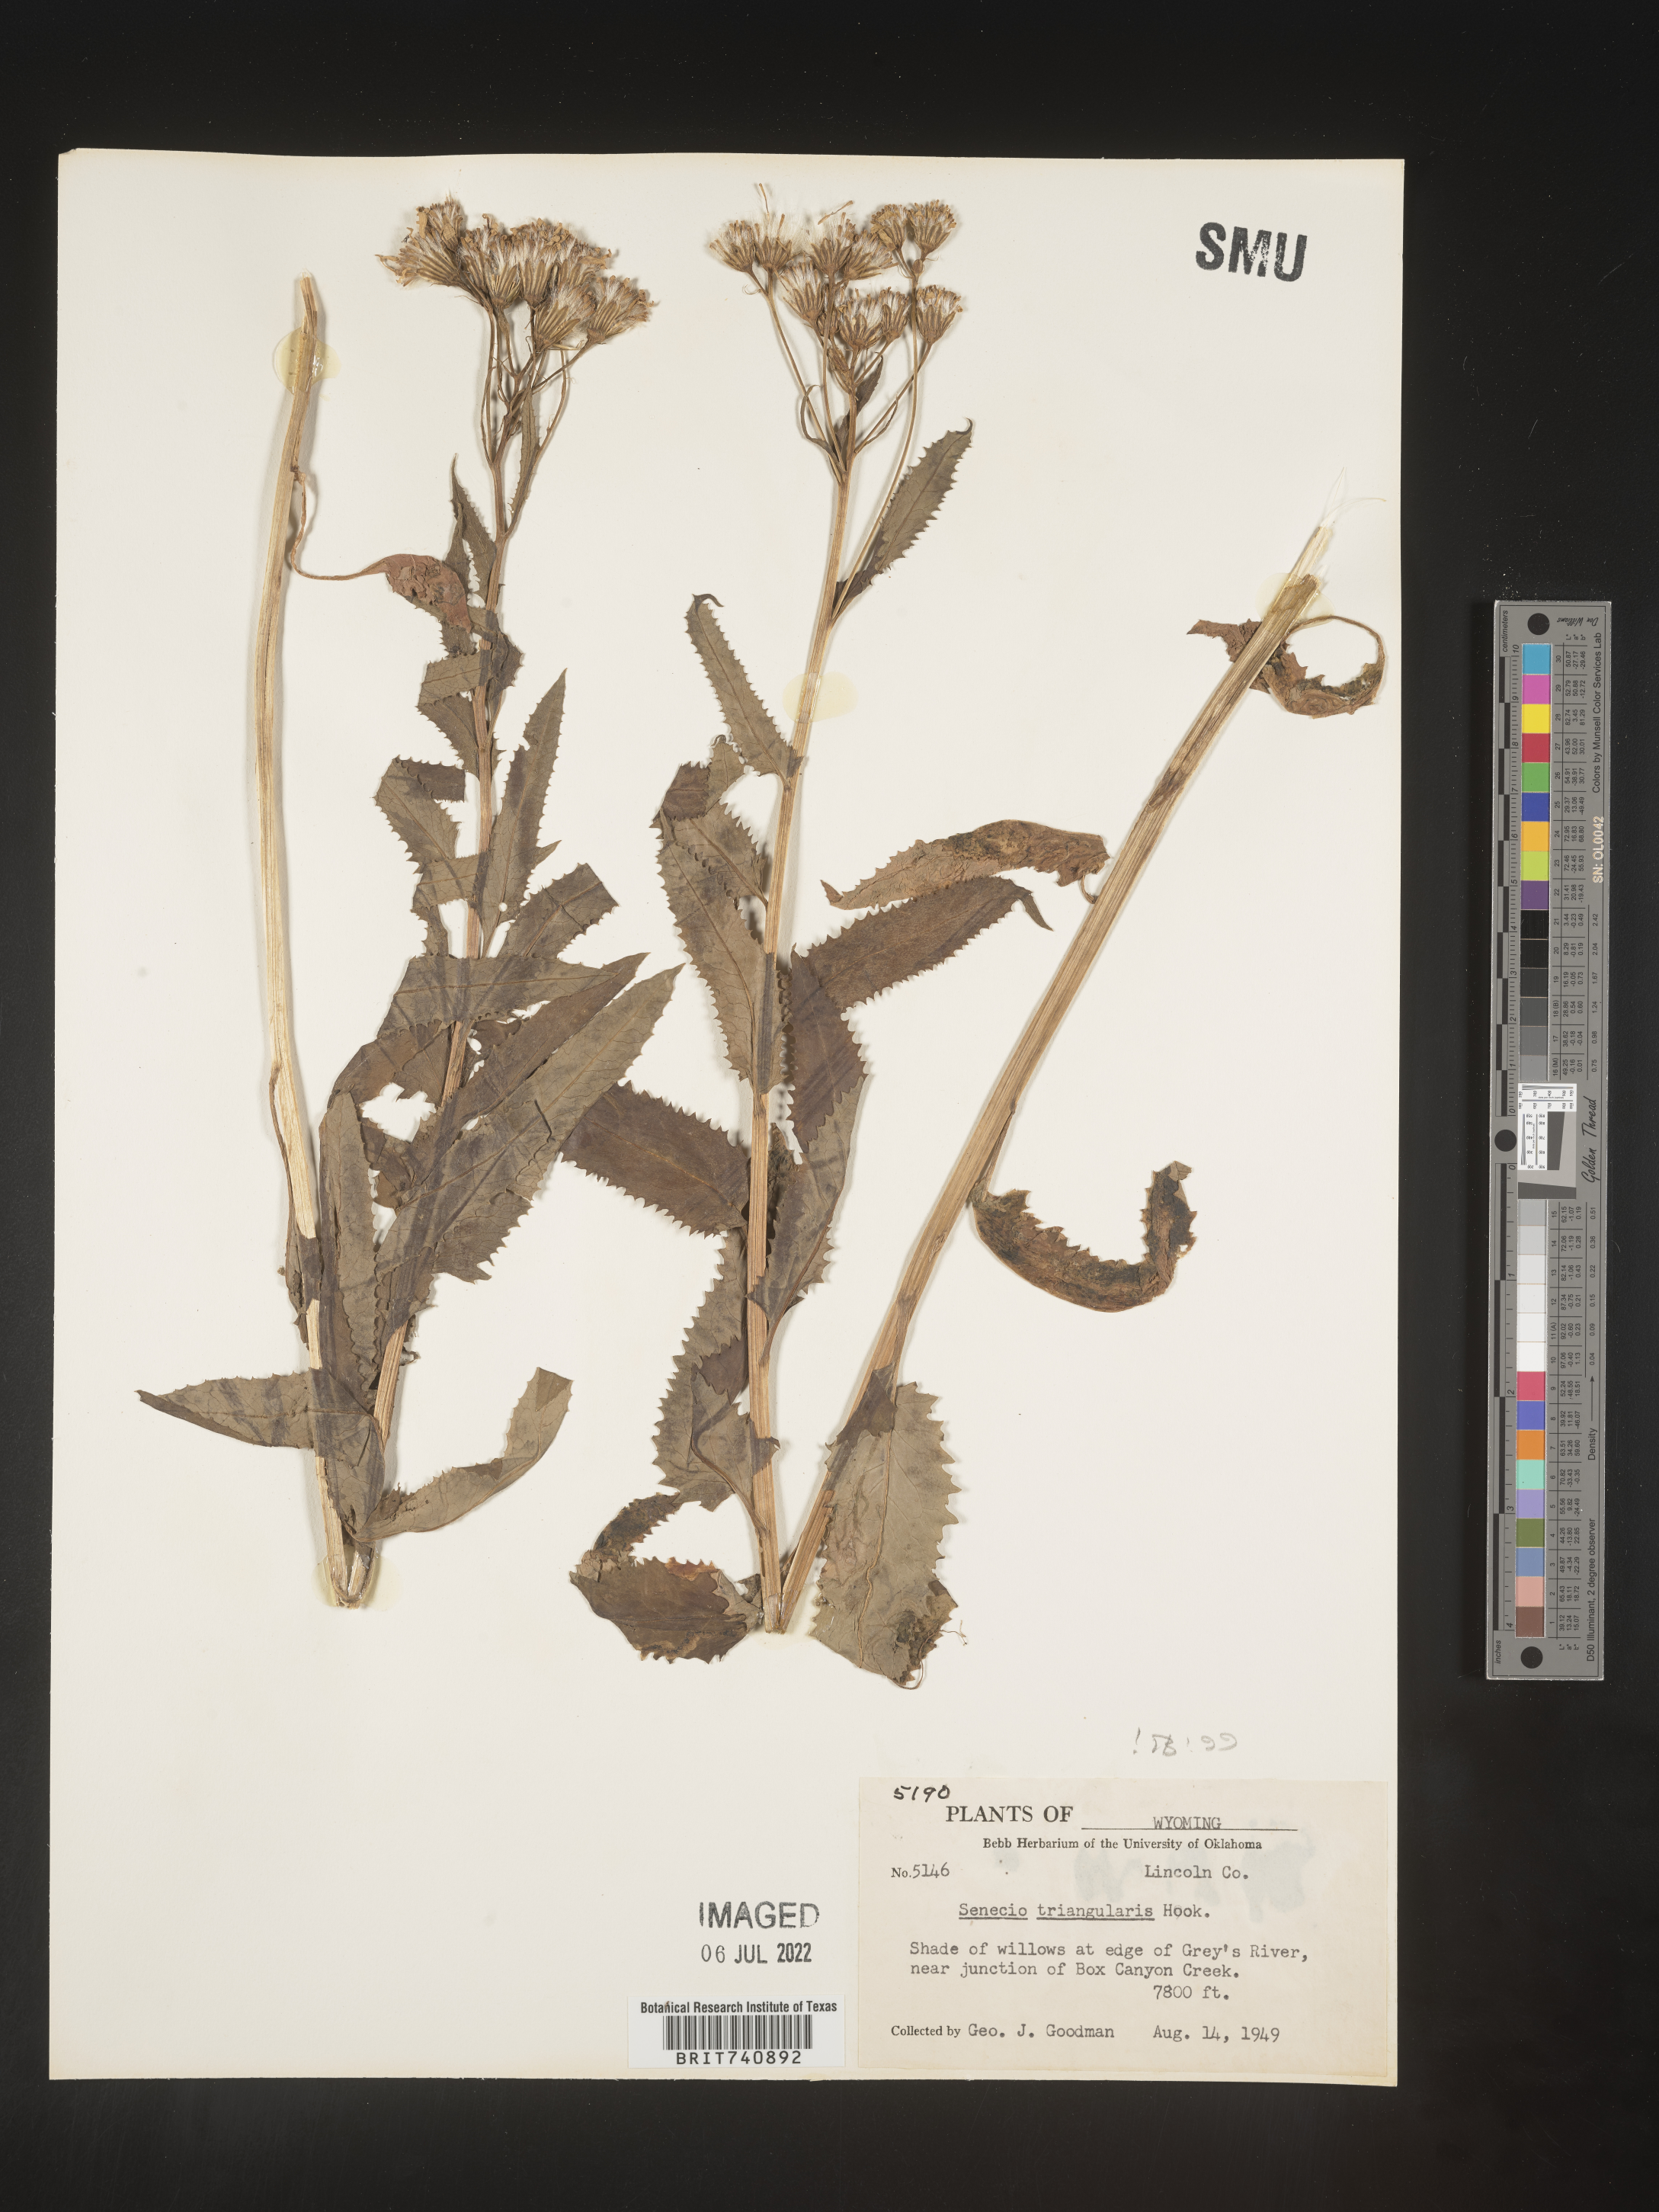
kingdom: Plantae
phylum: Tracheophyta
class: Magnoliopsida
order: Asterales
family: Asteraceae
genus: Senecio
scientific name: Senecio triangularis
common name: Arrowleaf butterweed
